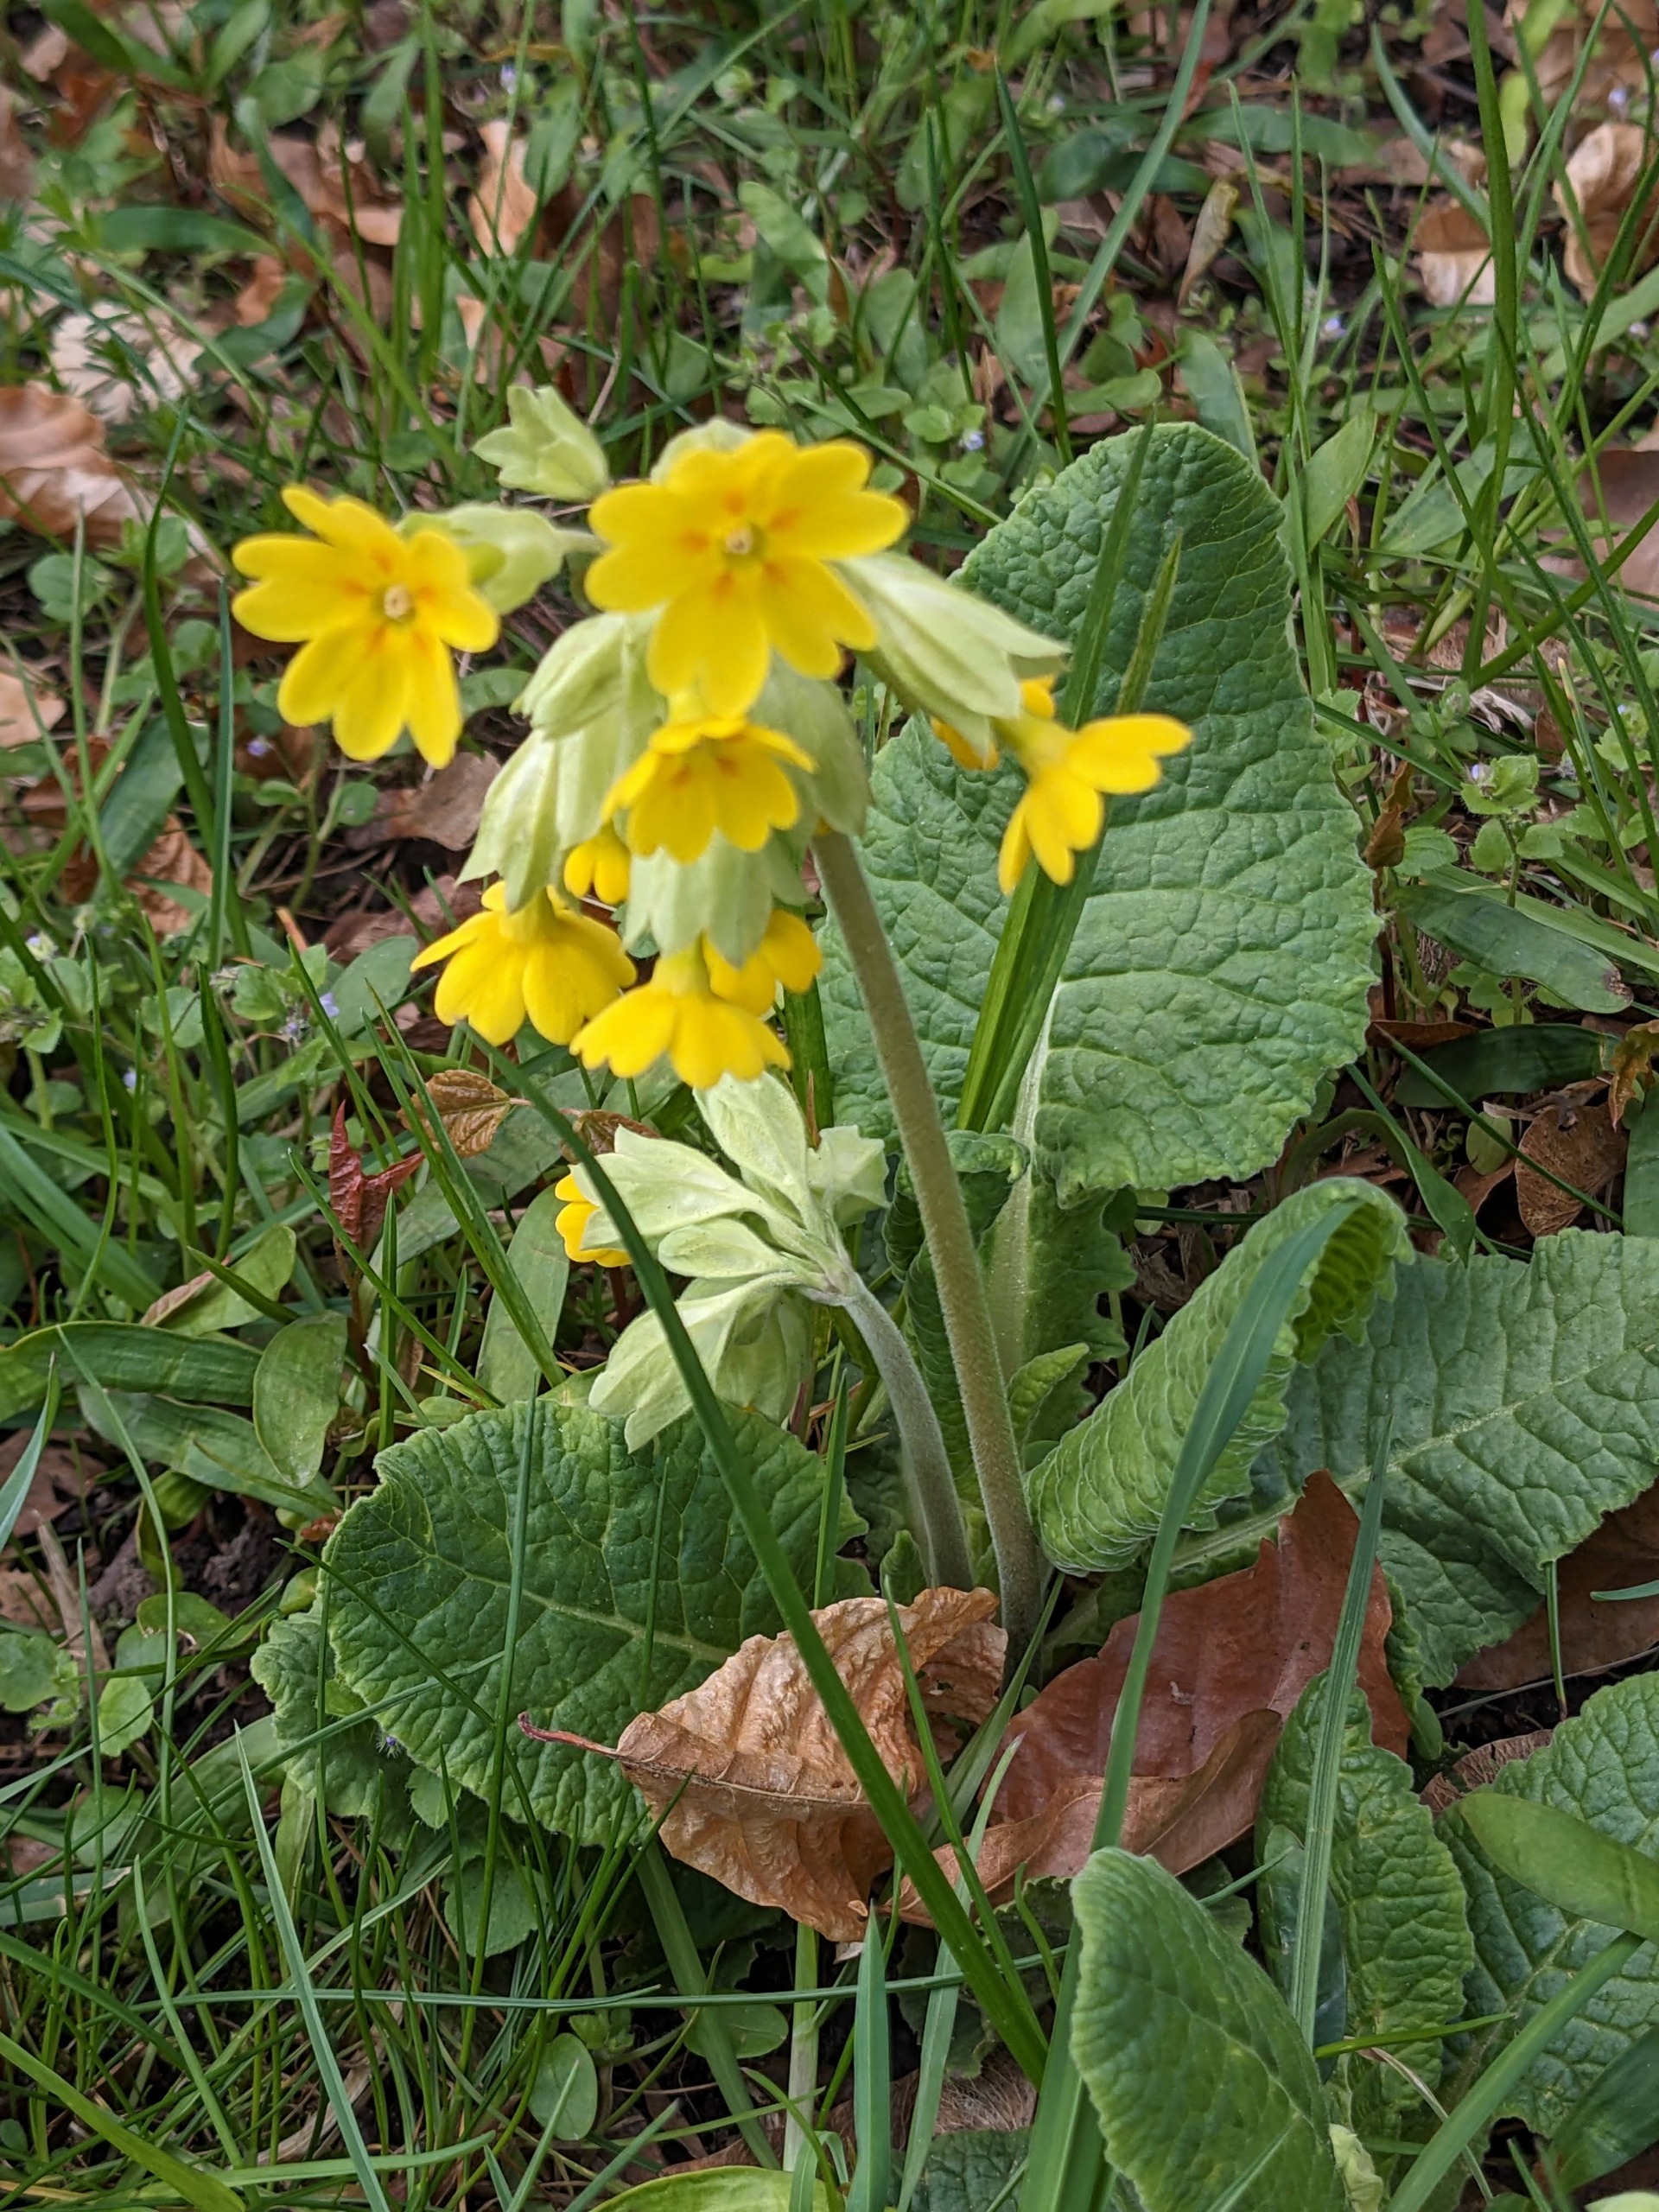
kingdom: Plantae
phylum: Tracheophyta
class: Magnoliopsida
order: Ericales
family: Primulaceae
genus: Primula
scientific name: Primula veris
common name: Hulkravet kodriver
